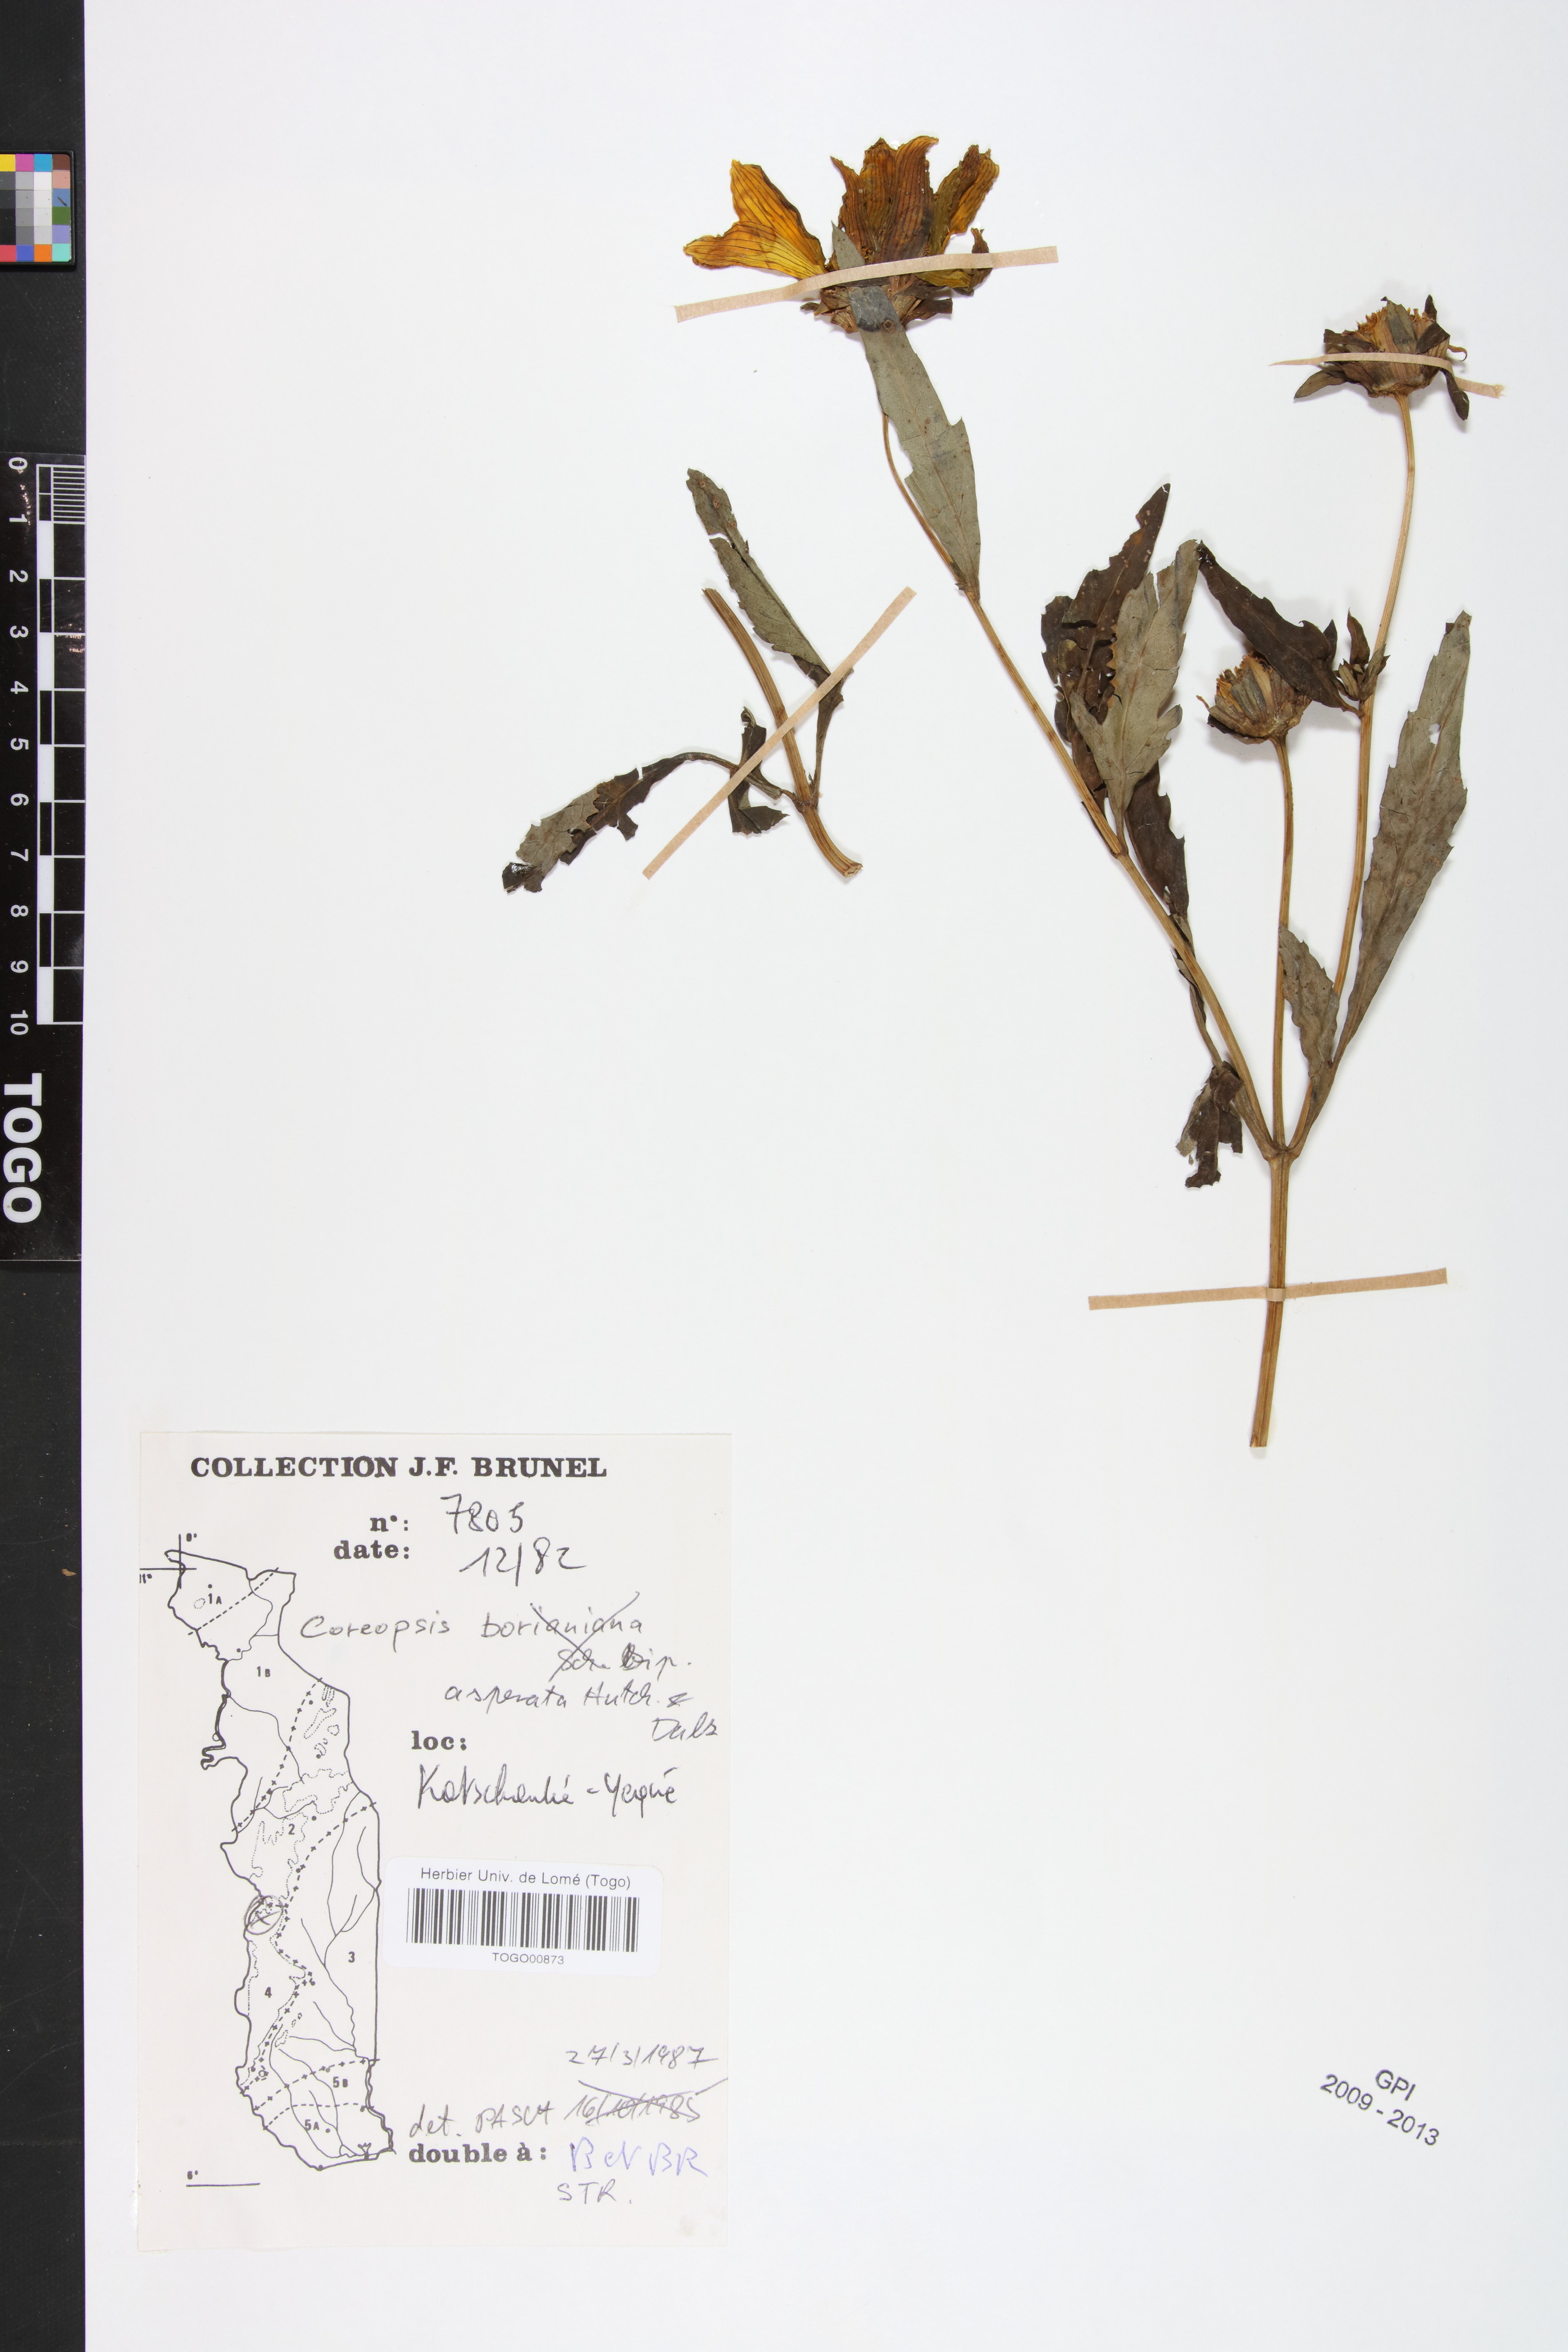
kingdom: Plantae
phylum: Tracheophyta
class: Magnoliopsida
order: Asterales
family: Asteraceae
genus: Bidens
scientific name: Bidens asperata
